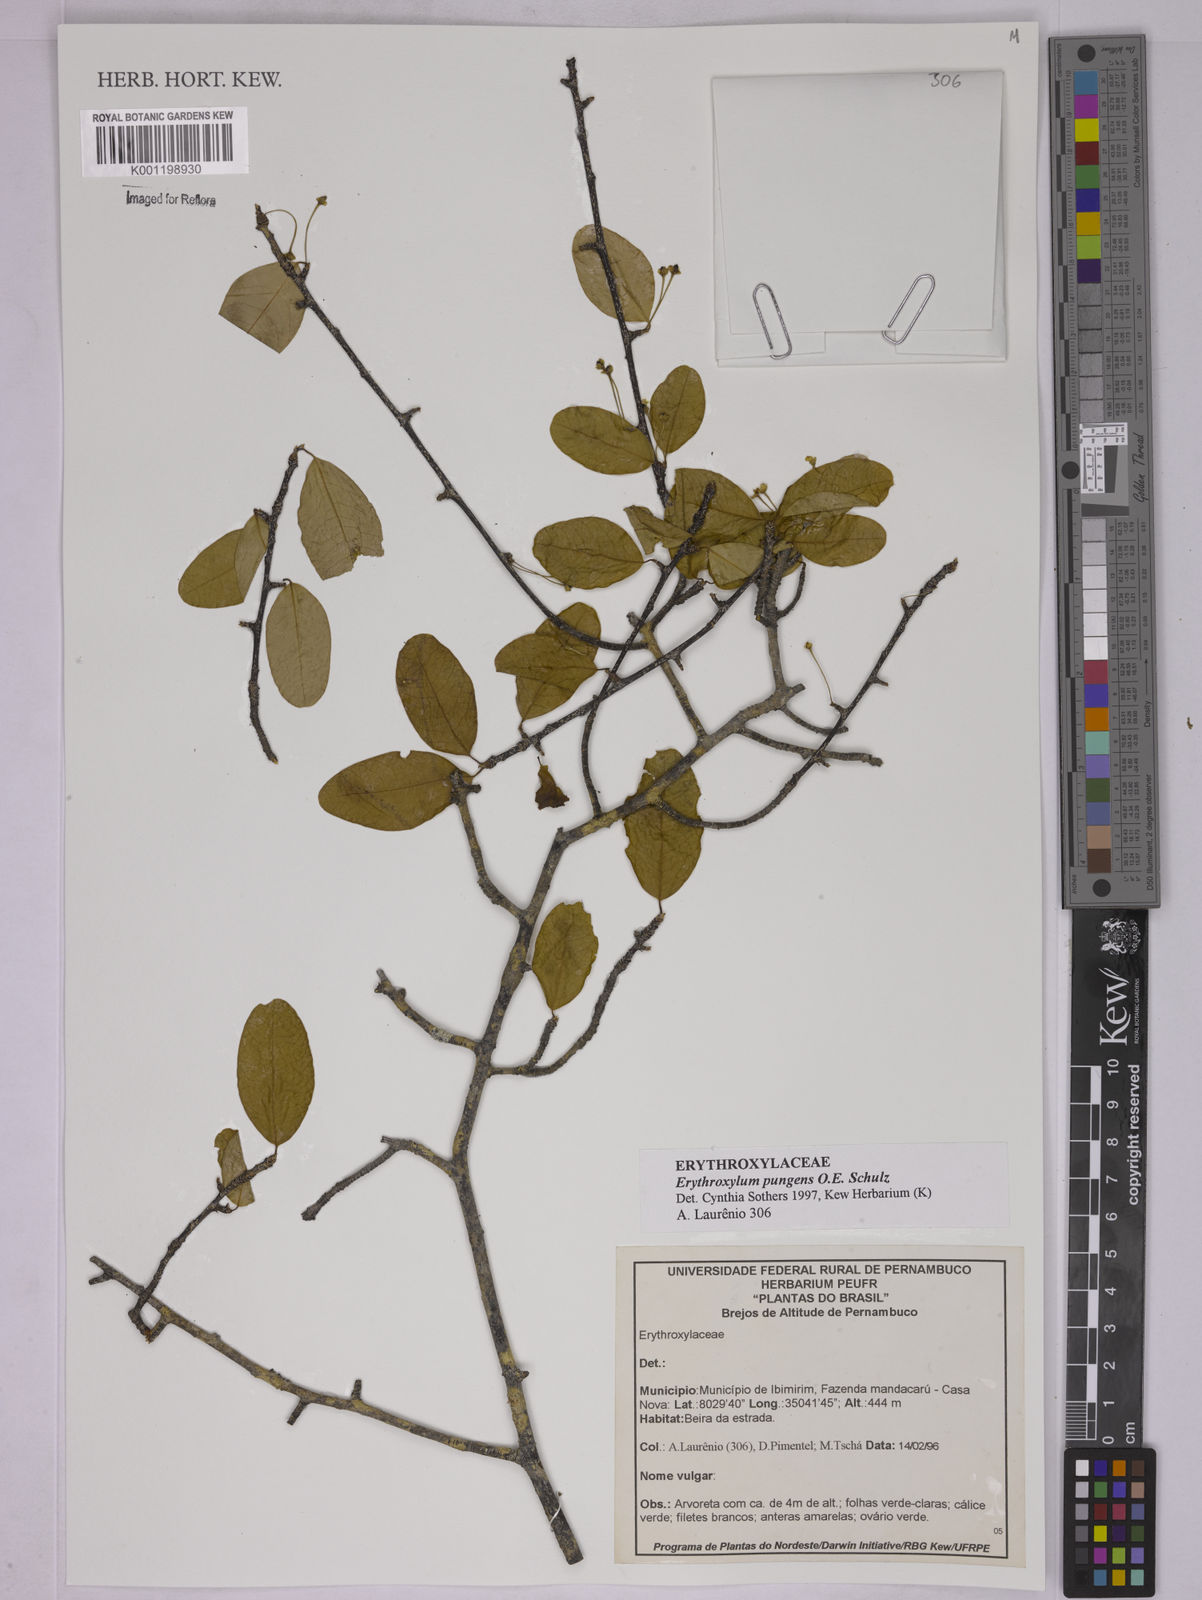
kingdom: Plantae
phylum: Tracheophyta
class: Magnoliopsida
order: Malpighiales
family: Erythroxylaceae
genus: Erythroxylum
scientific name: Erythroxylum pungens
